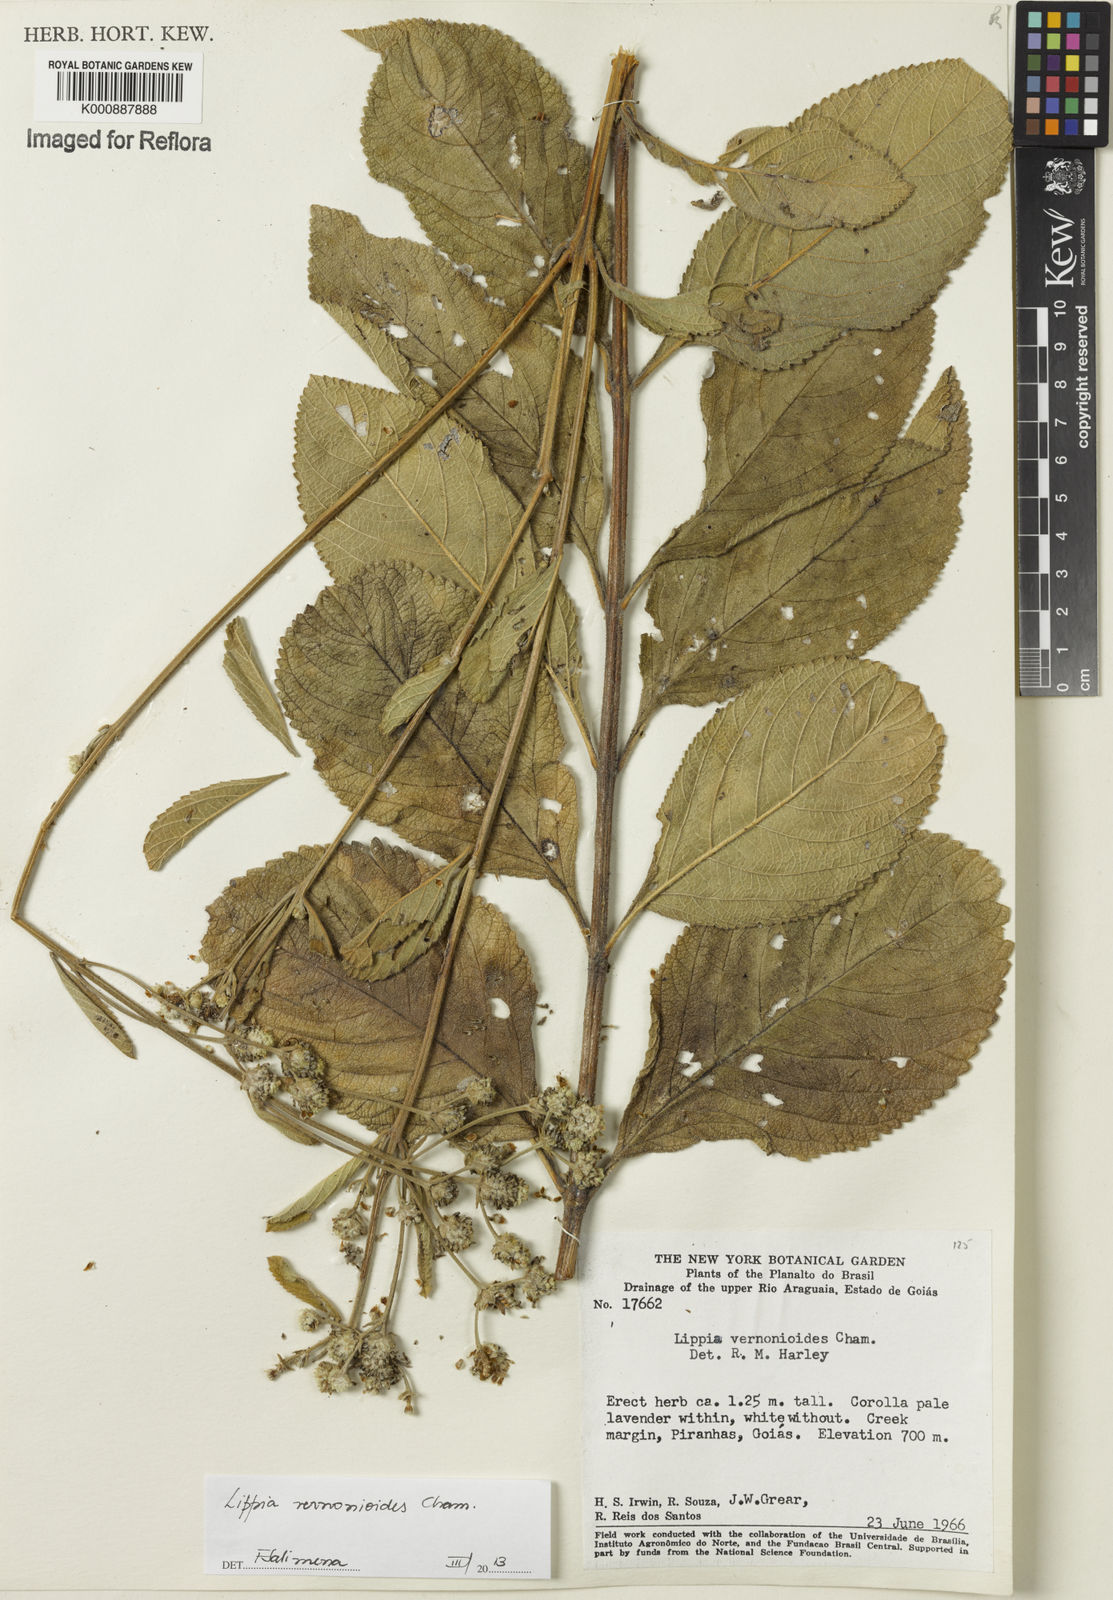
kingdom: Plantae
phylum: Tracheophyta
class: Magnoliopsida
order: Lamiales
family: Verbenaceae
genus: Lippia
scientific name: Lippia vernonioides
